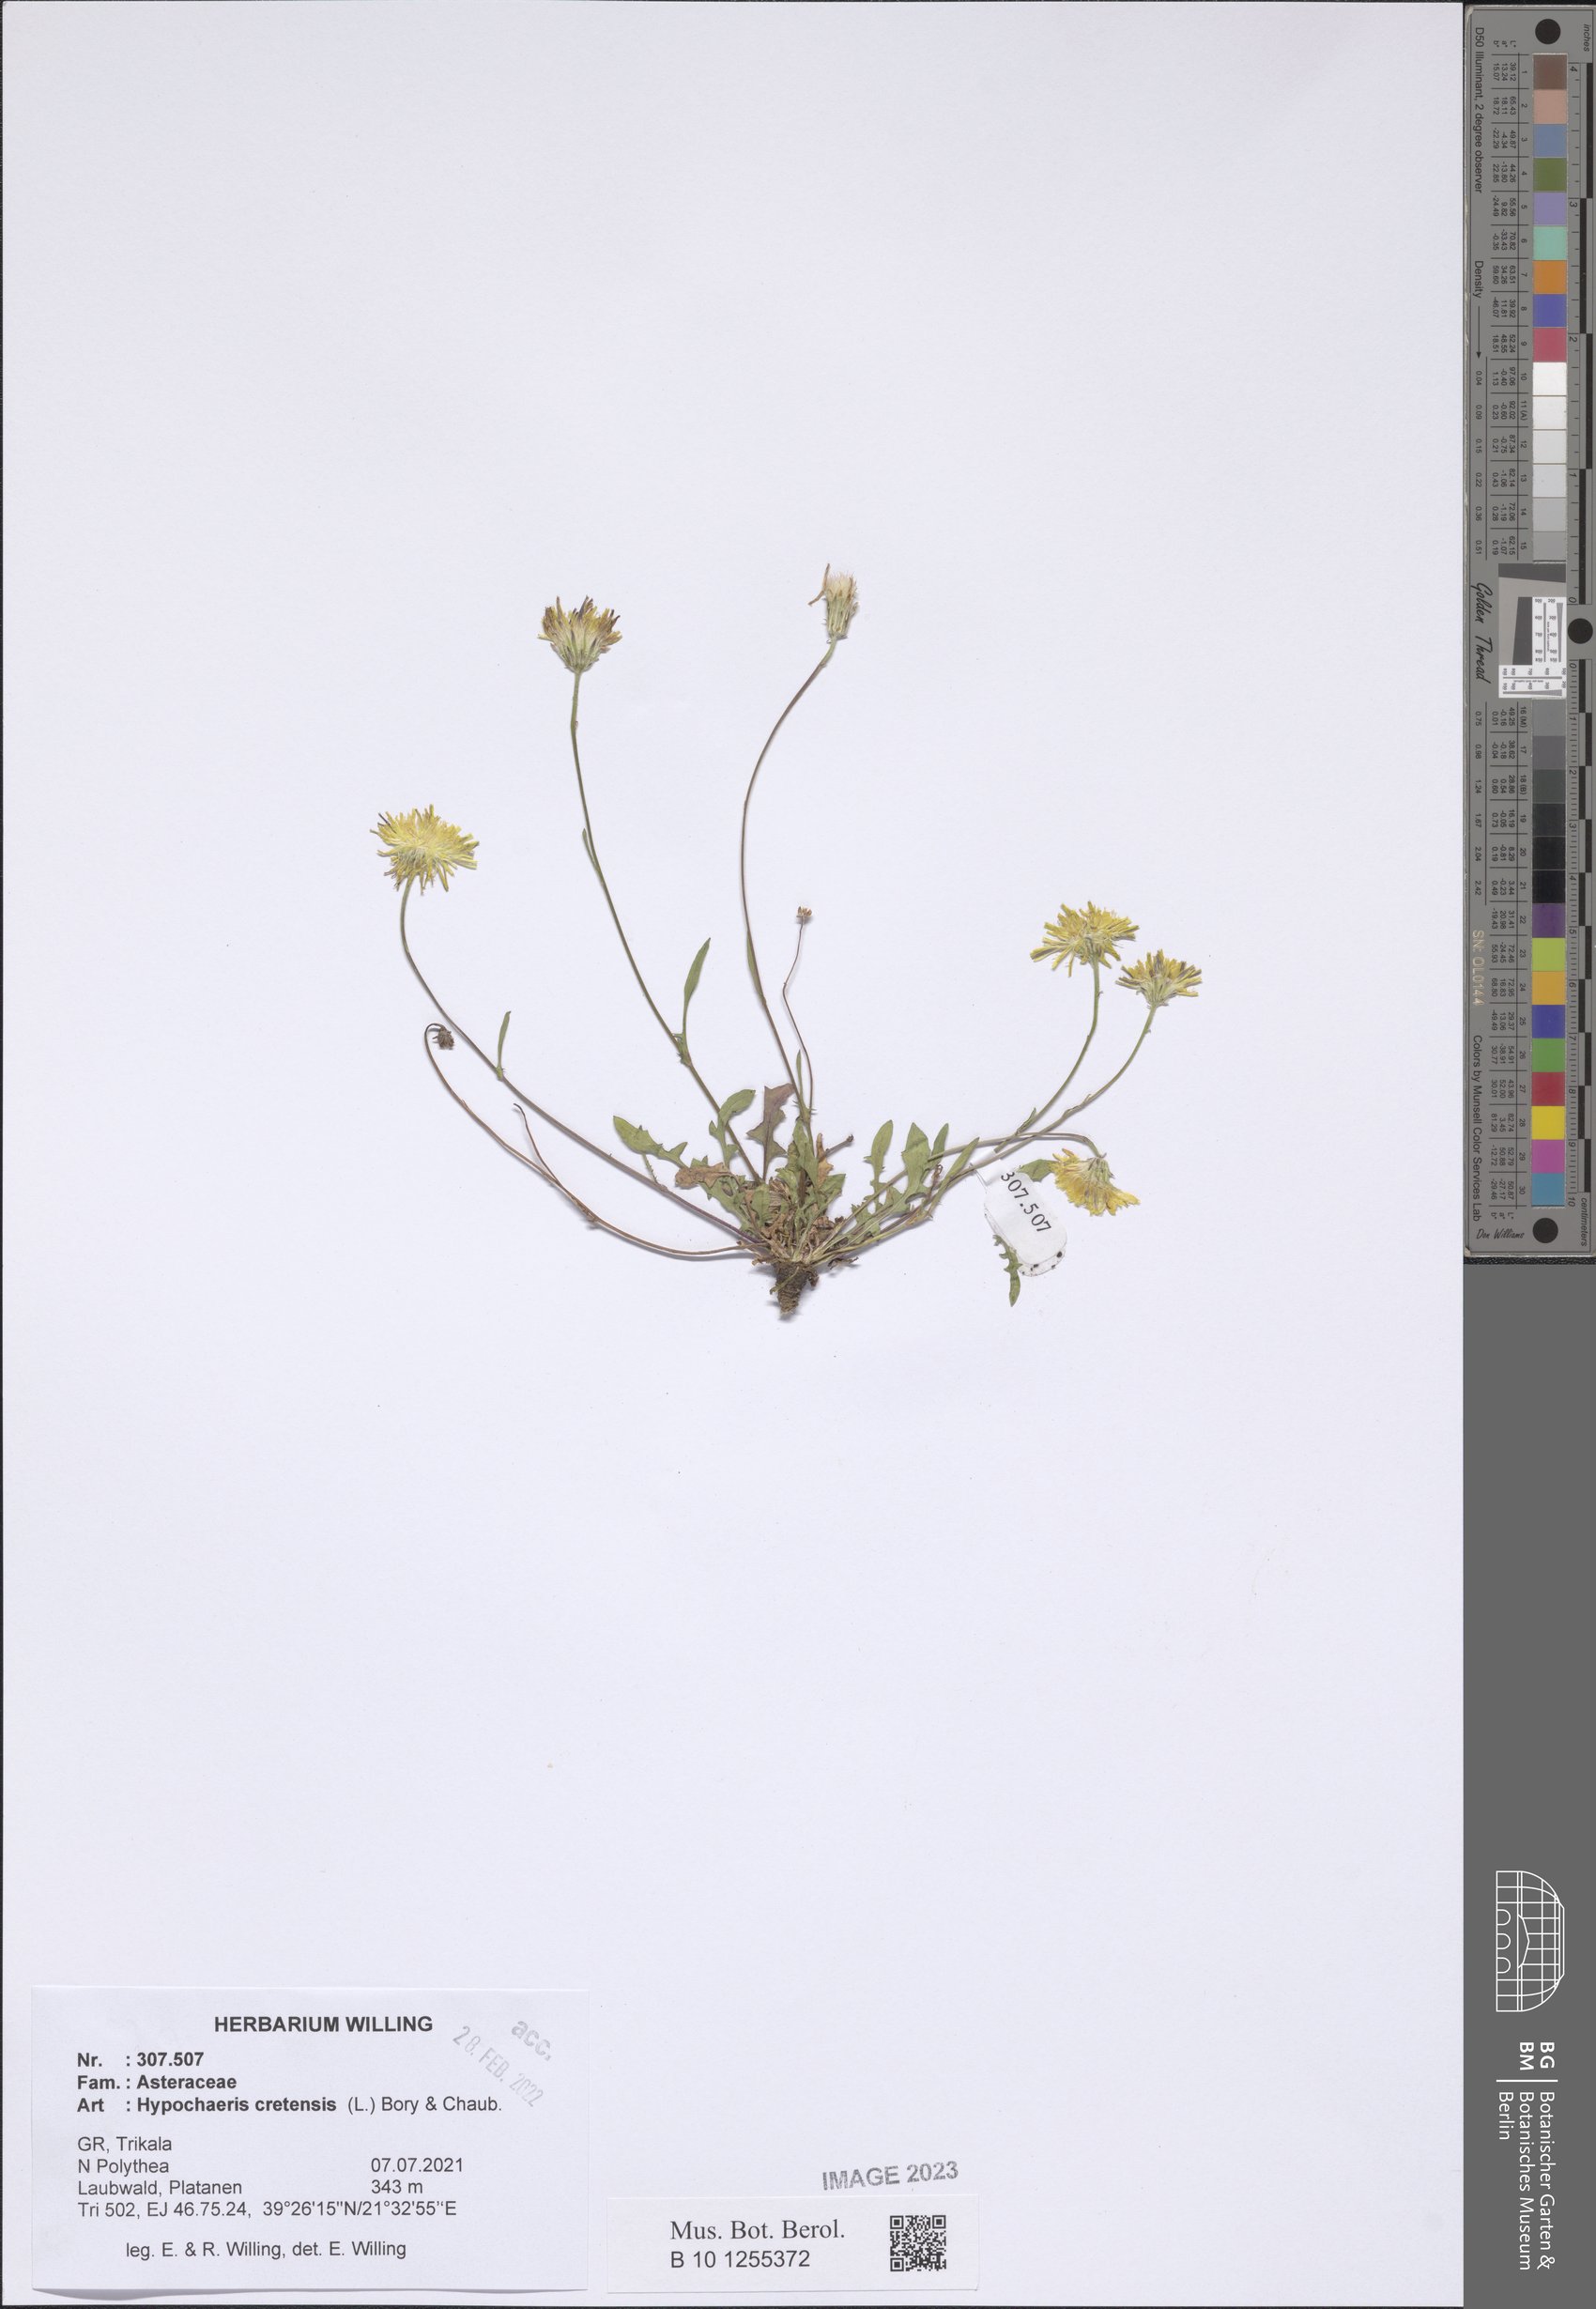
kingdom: Plantae
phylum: Tracheophyta
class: Magnoliopsida
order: Asterales
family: Asteraceae
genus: Hypochaeris
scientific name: Hypochaeris cretensis
